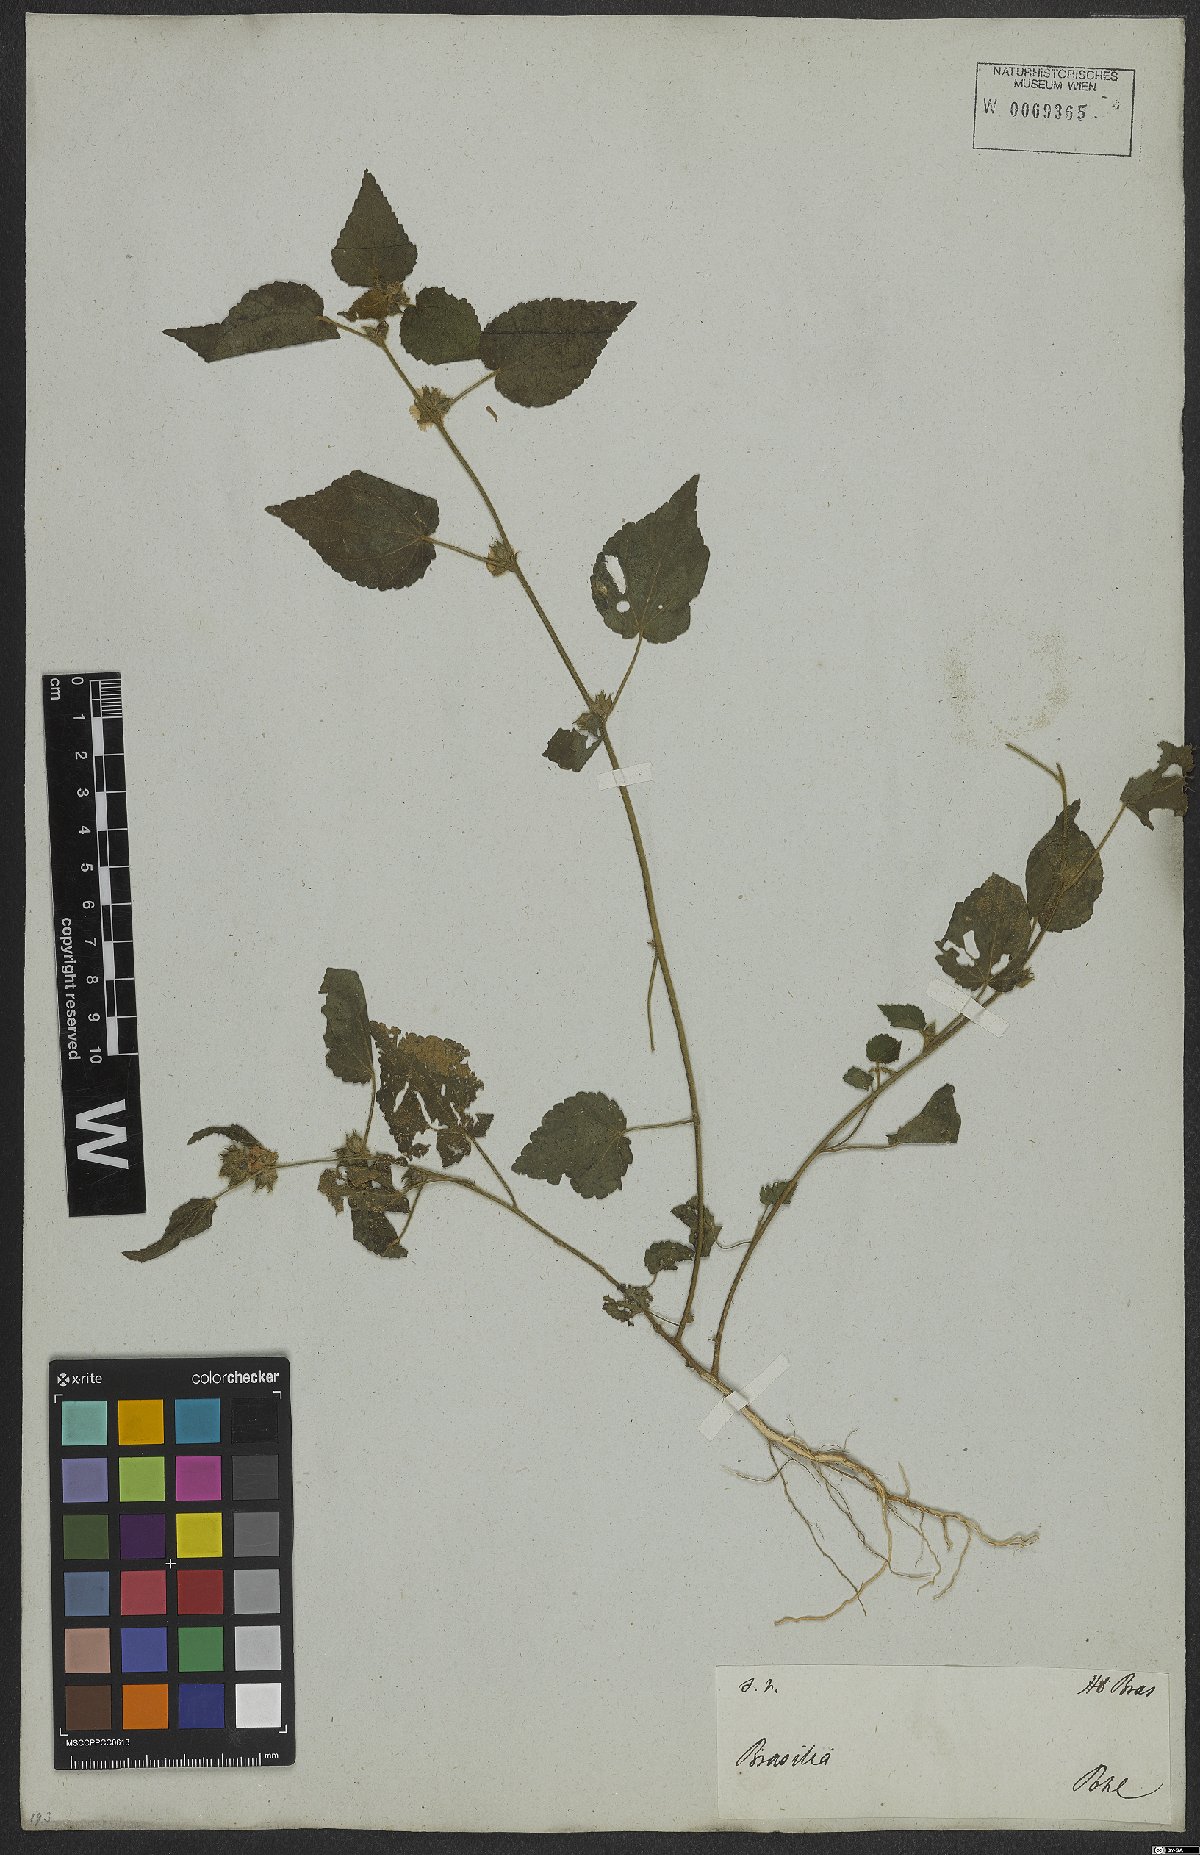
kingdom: Plantae
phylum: Tracheophyta
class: Magnoliopsida
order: Malvales
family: Malvaceae
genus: Sida
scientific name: Sida urens
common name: Tropical fanpetals
